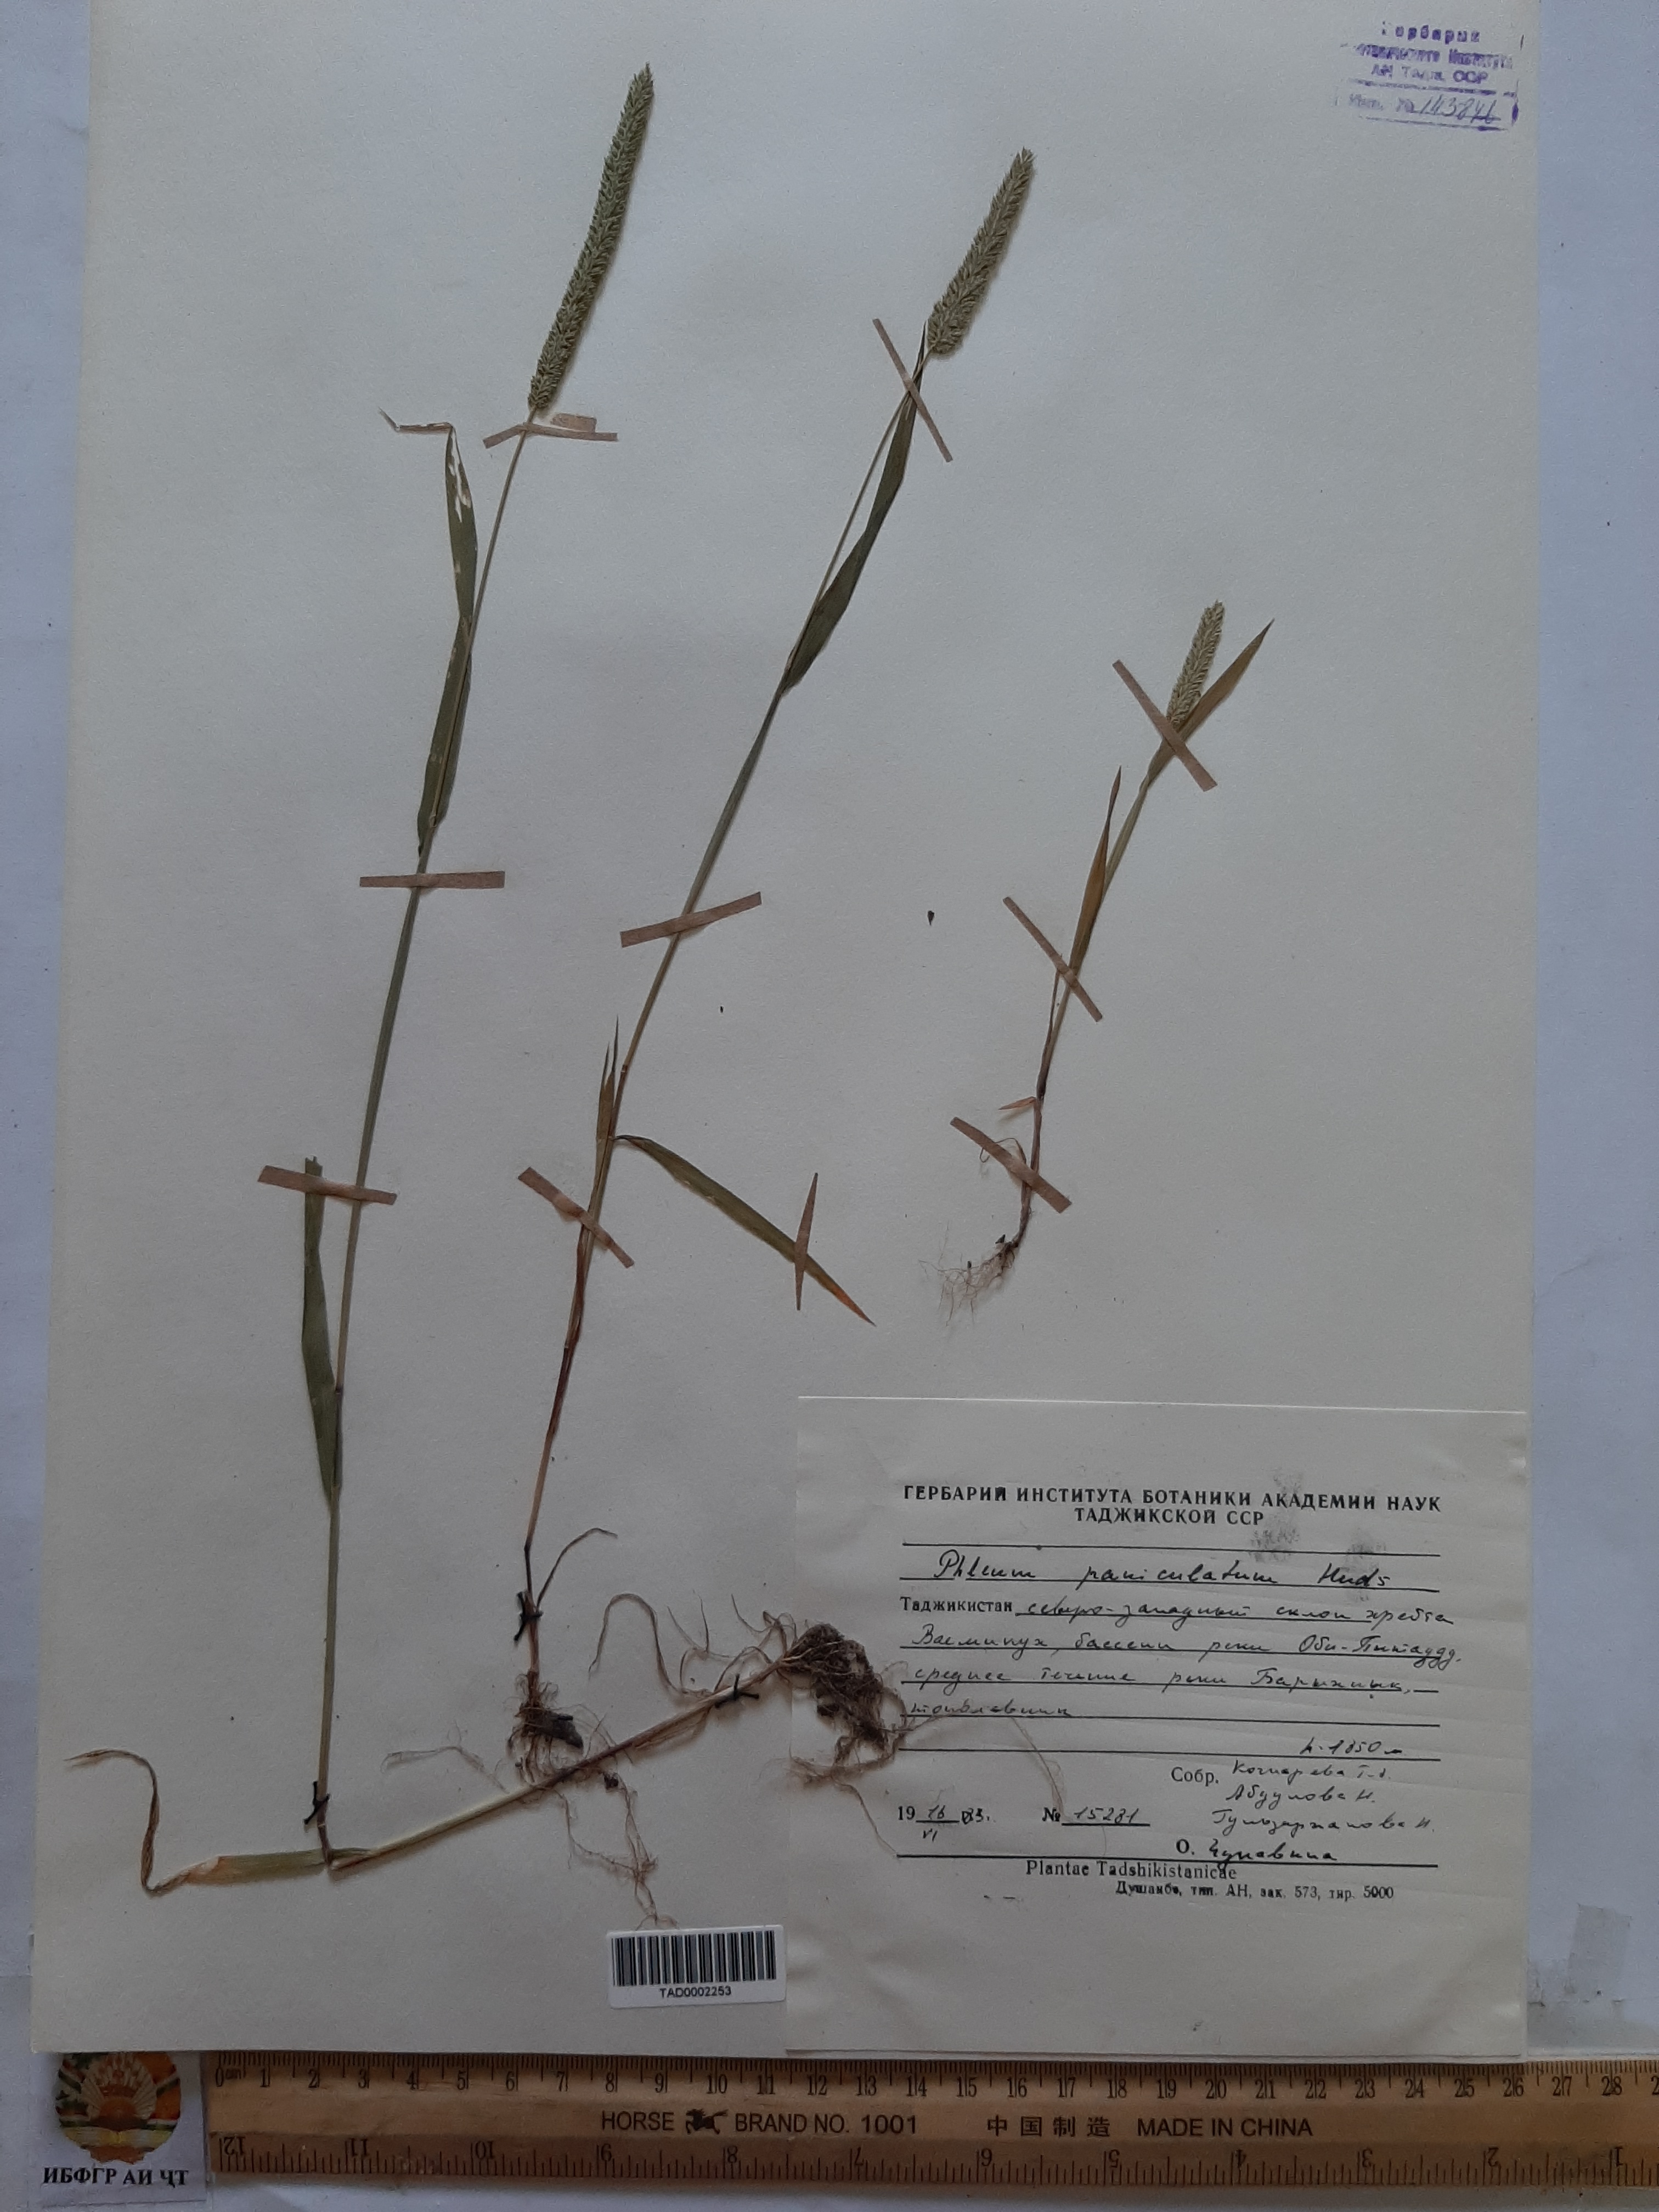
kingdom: Plantae
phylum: Tracheophyta
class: Liliopsida
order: Poales
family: Poaceae
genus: Phleum
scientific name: Phleum paniculatum
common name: British timothy
